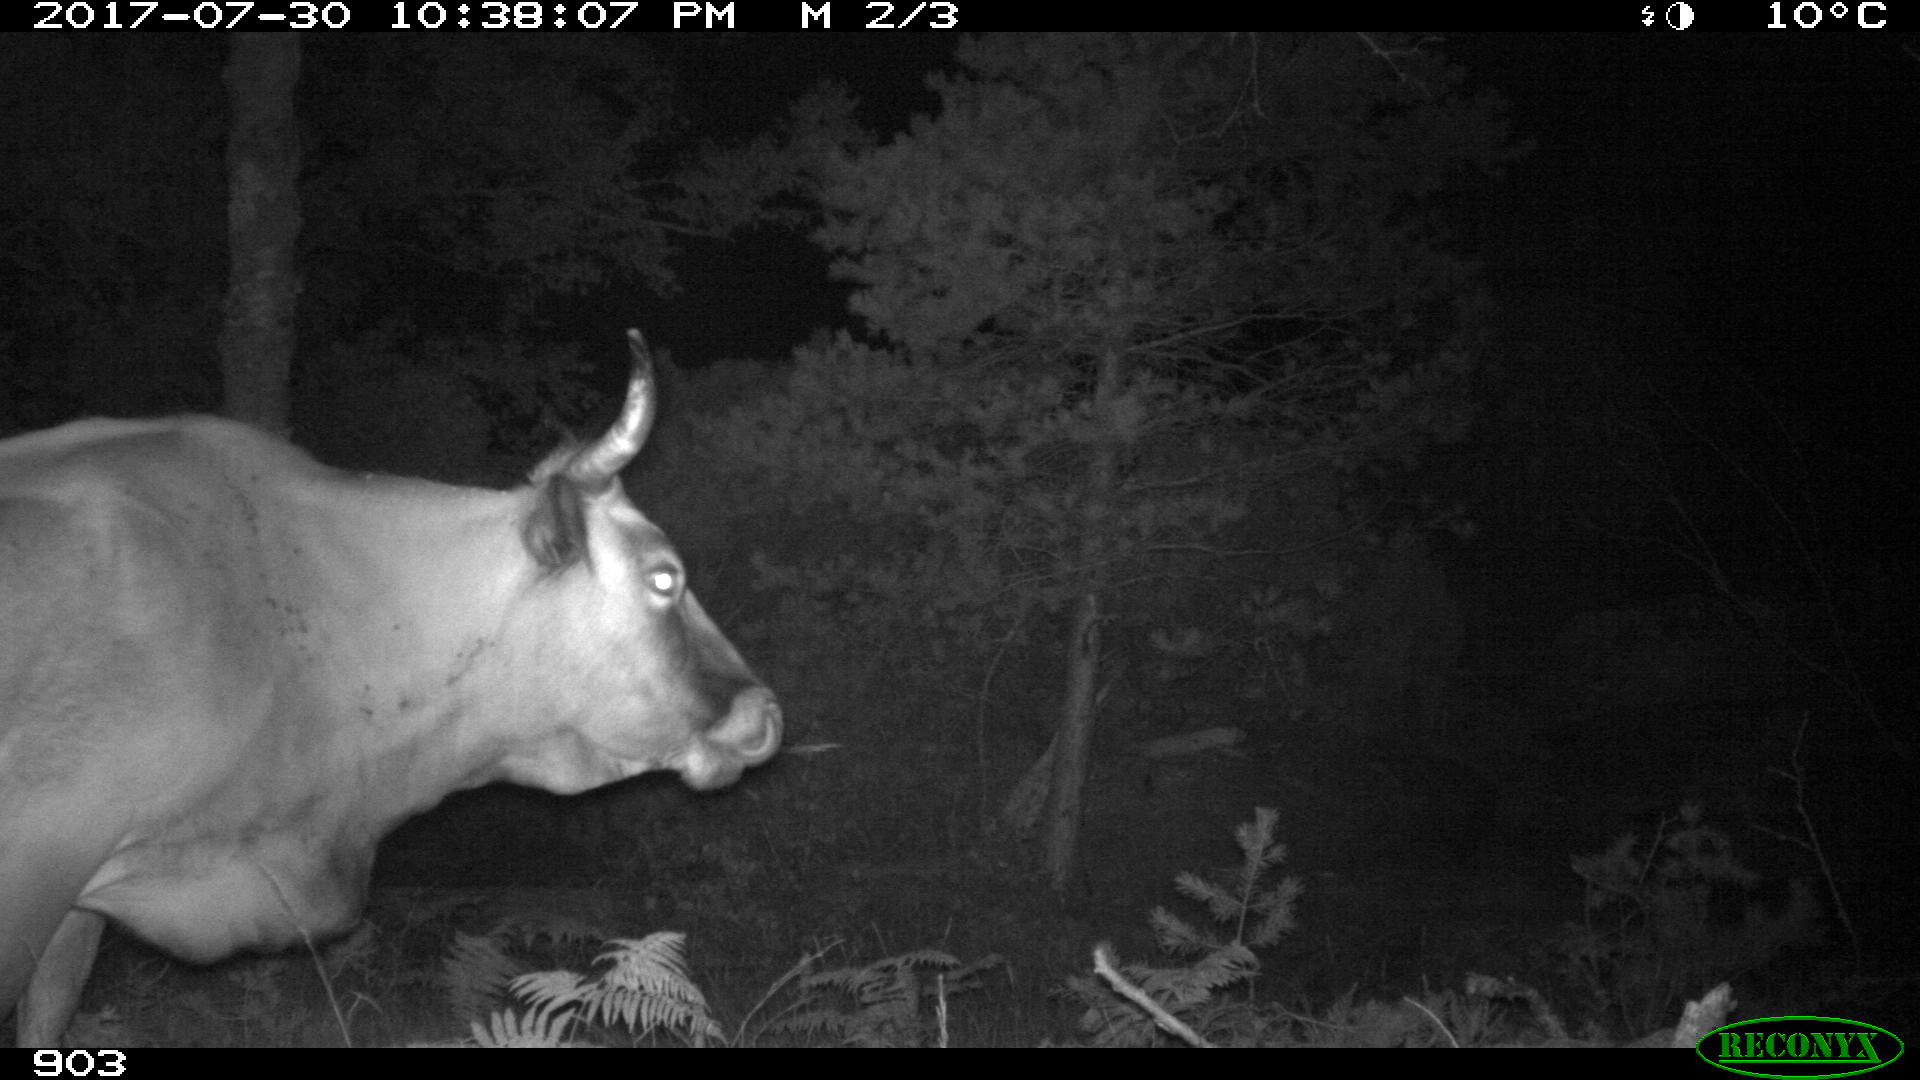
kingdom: Animalia
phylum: Chordata
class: Mammalia
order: Artiodactyla
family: Bovidae
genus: Bos
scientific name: Bos taurus
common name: Domesticated cattle
